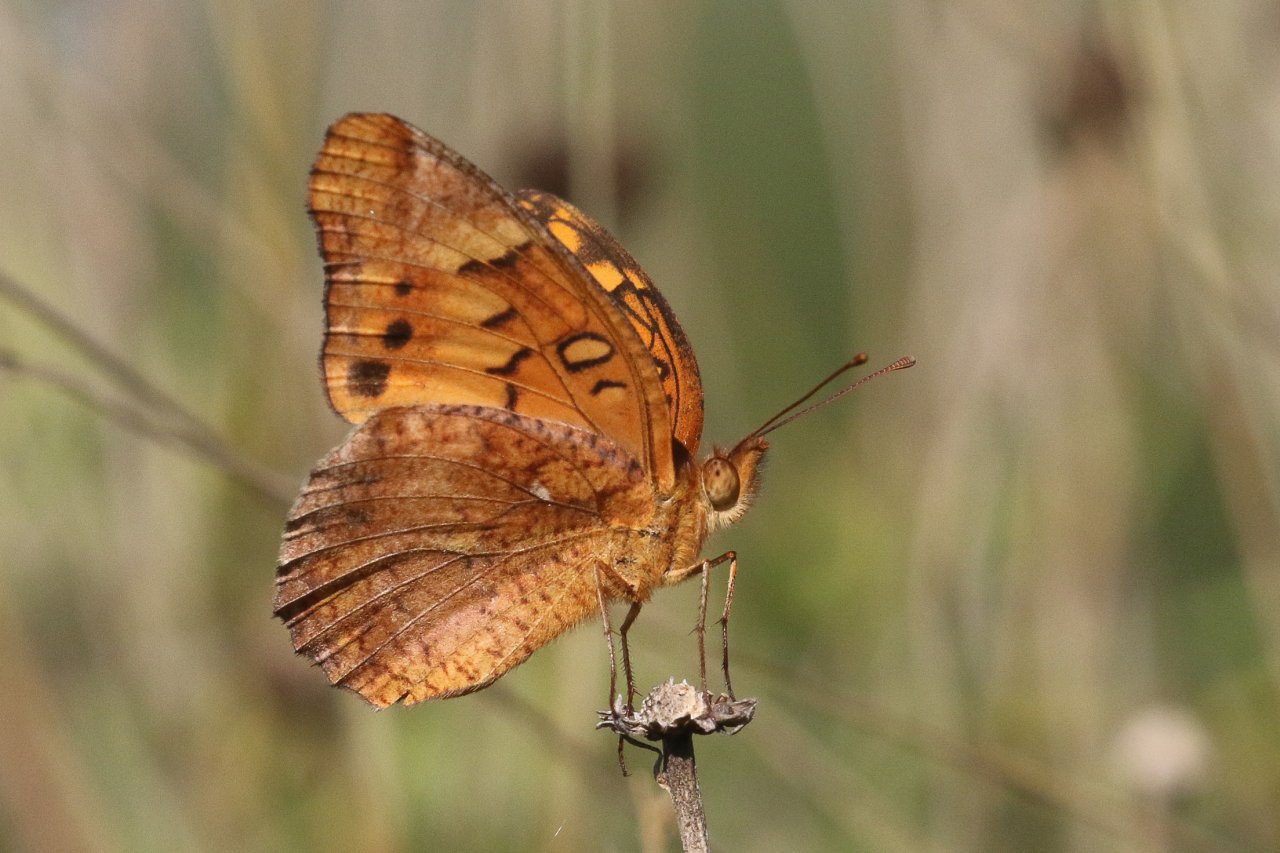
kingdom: Animalia
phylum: Arthropoda
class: Insecta
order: Lepidoptera
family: Nymphalidae
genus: Euptoieta
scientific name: Euptoieta hegesia
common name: Mexican Fritillary
